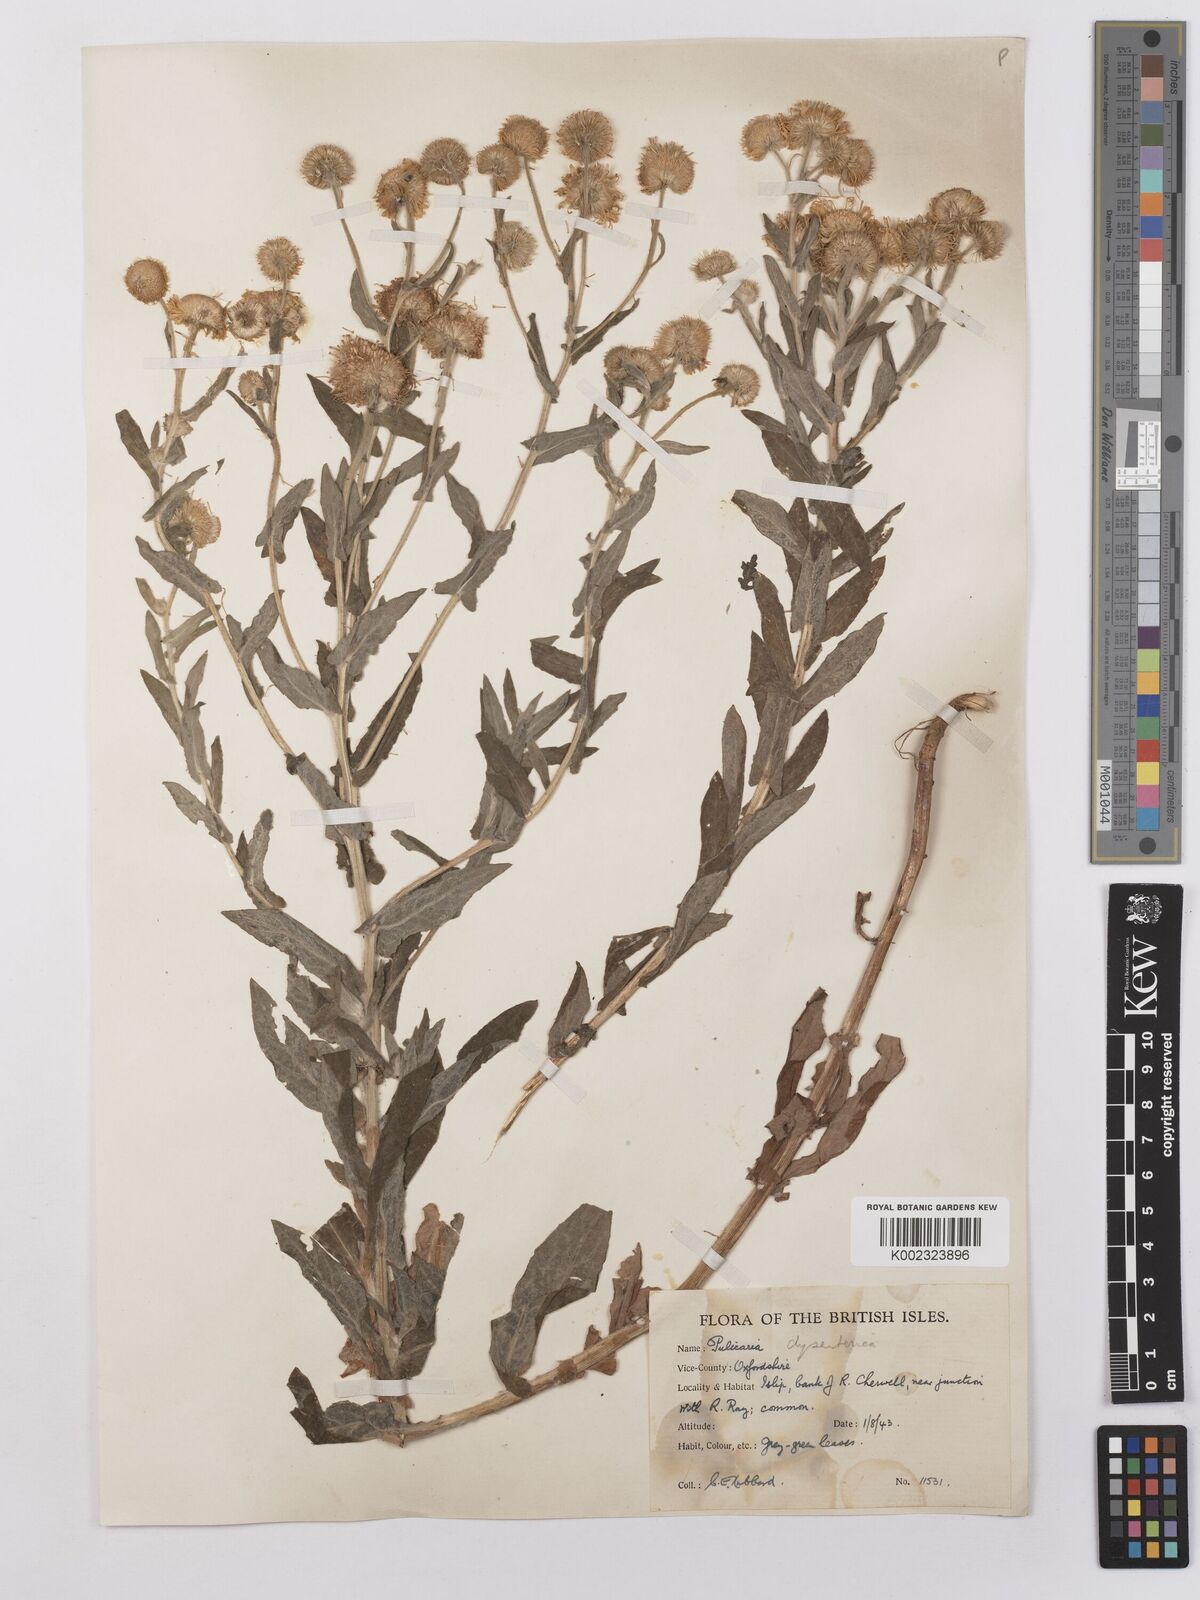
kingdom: Plantae
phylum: Tracheophyta
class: Magnoliopsida
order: Asterales
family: Asteraceae
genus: Pulicaria
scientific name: Pulicaria dysenterica
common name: Common fleabane
